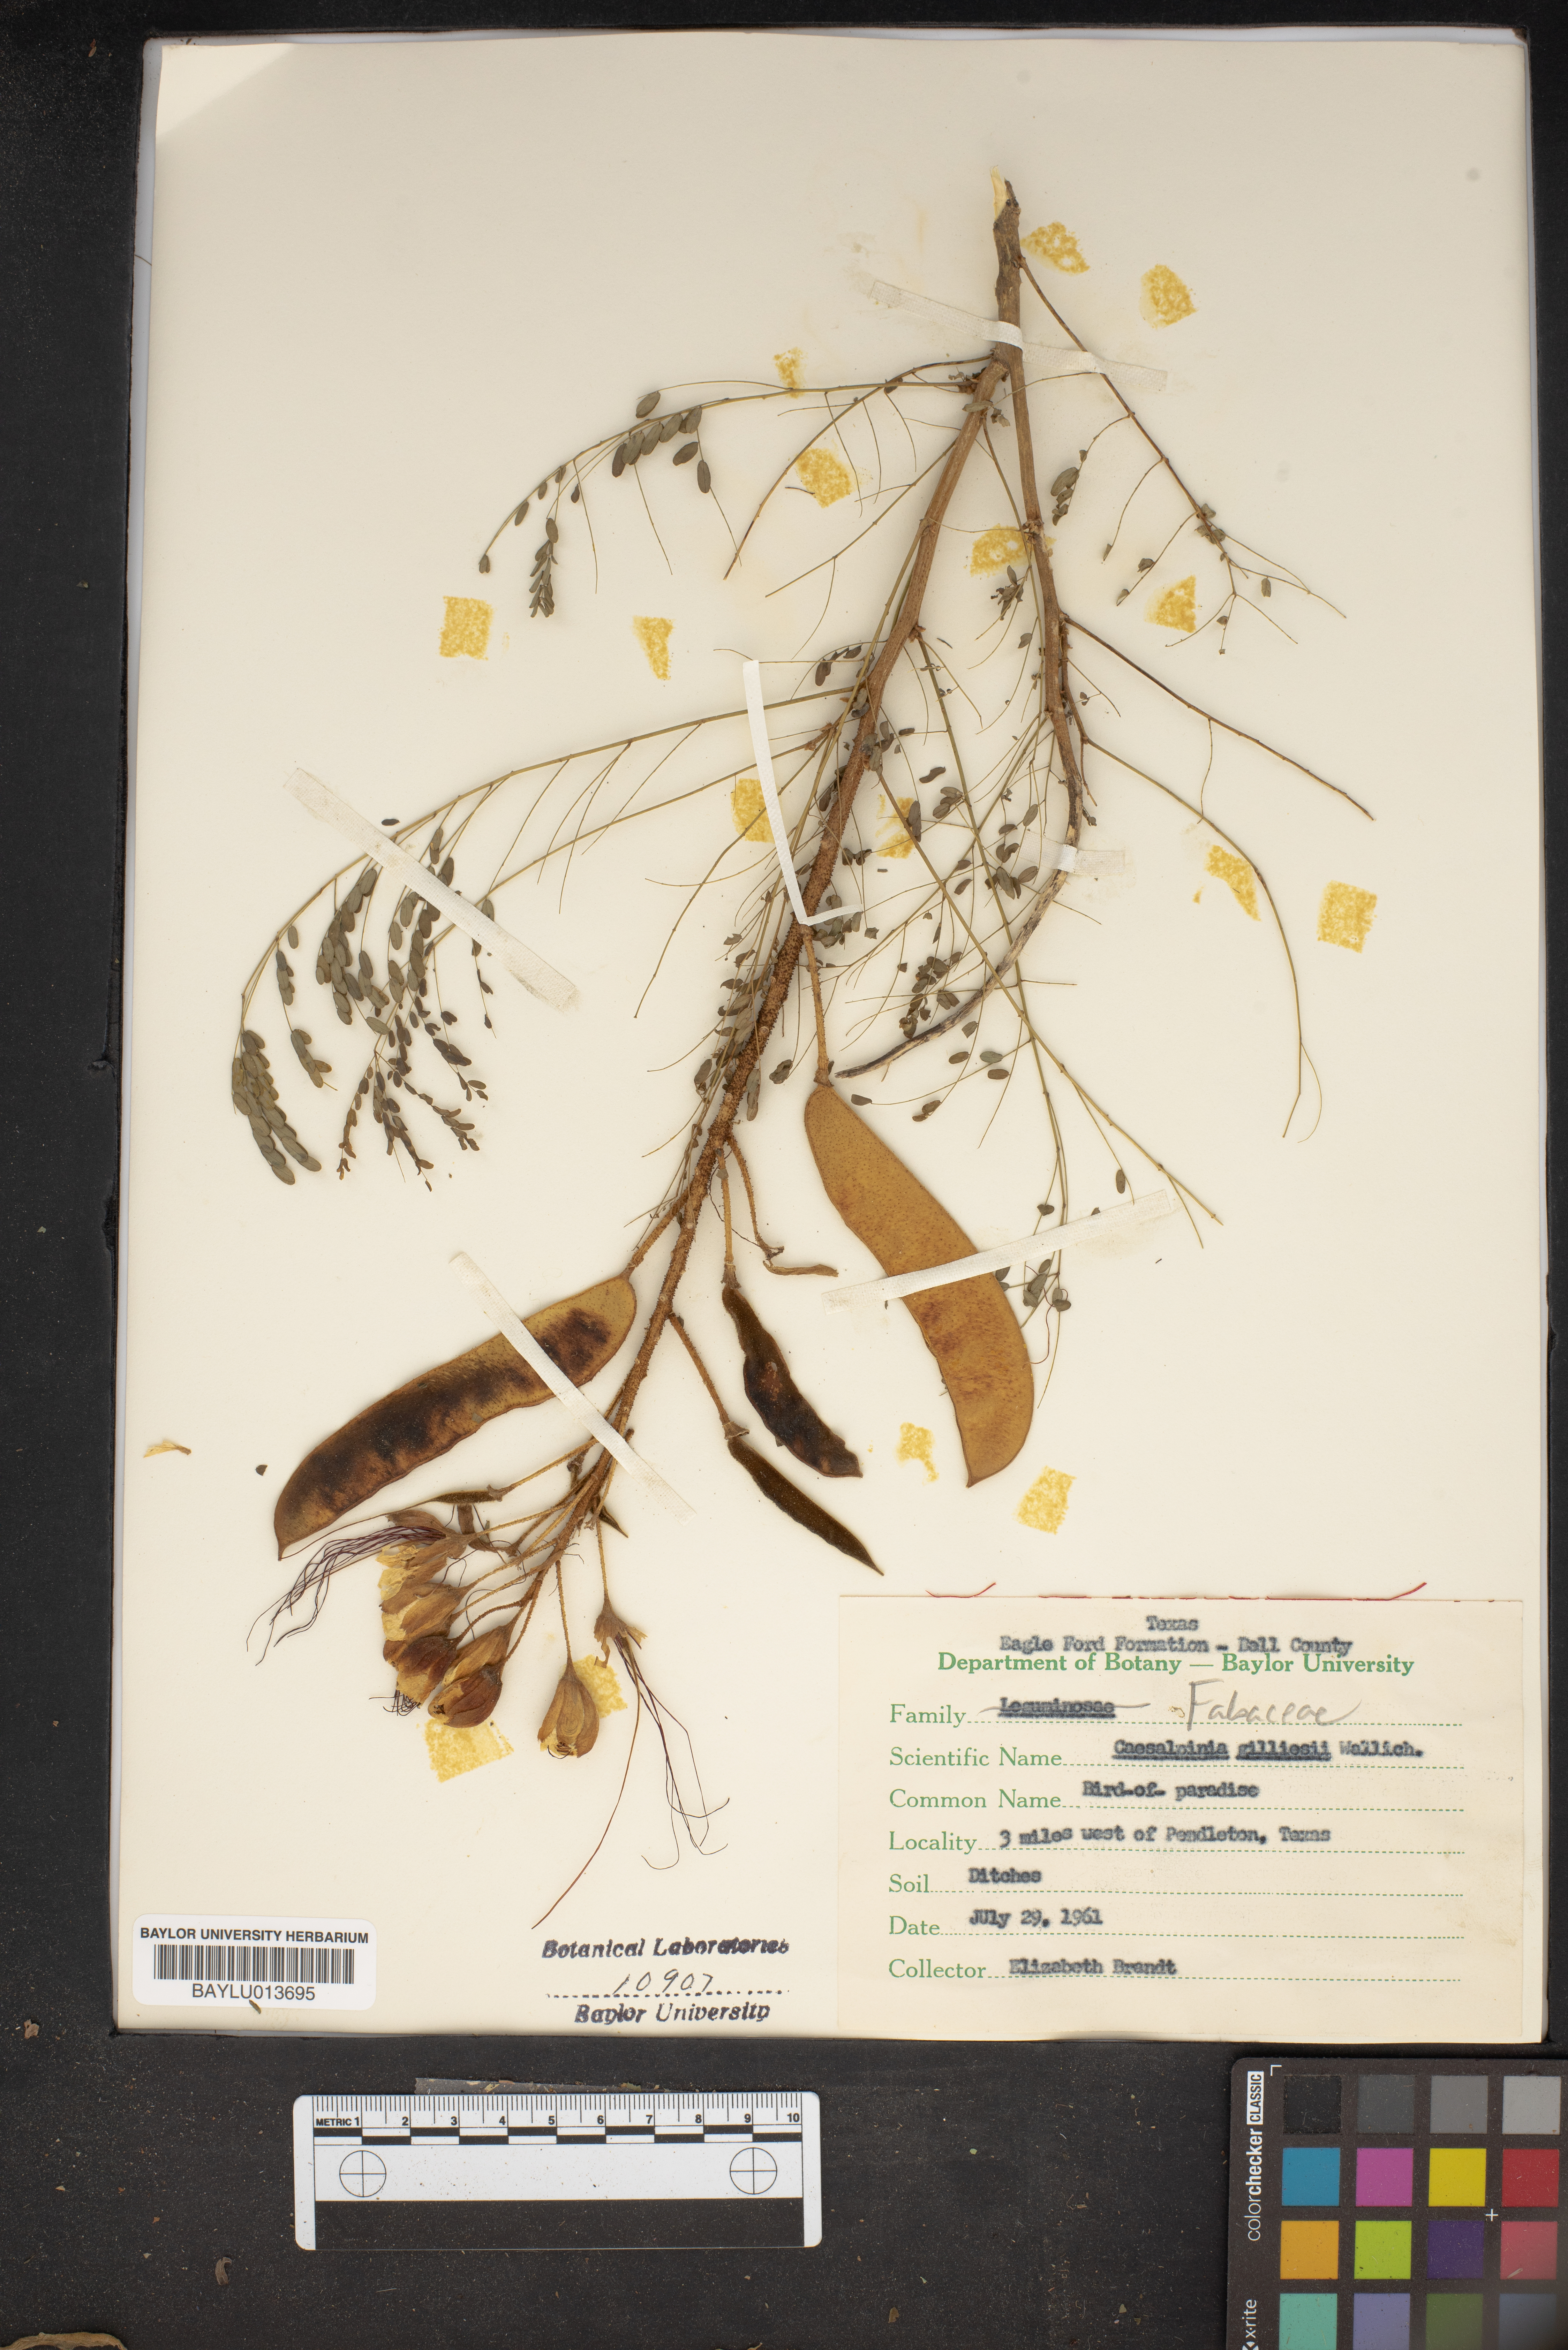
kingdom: Plantae
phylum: Tracheophyta
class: Magnoliopsida
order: Fabales
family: Fabaceae
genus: Erythrostemon
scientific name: Erythrostemon gilliesii
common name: Bird-of-paradise shrub
